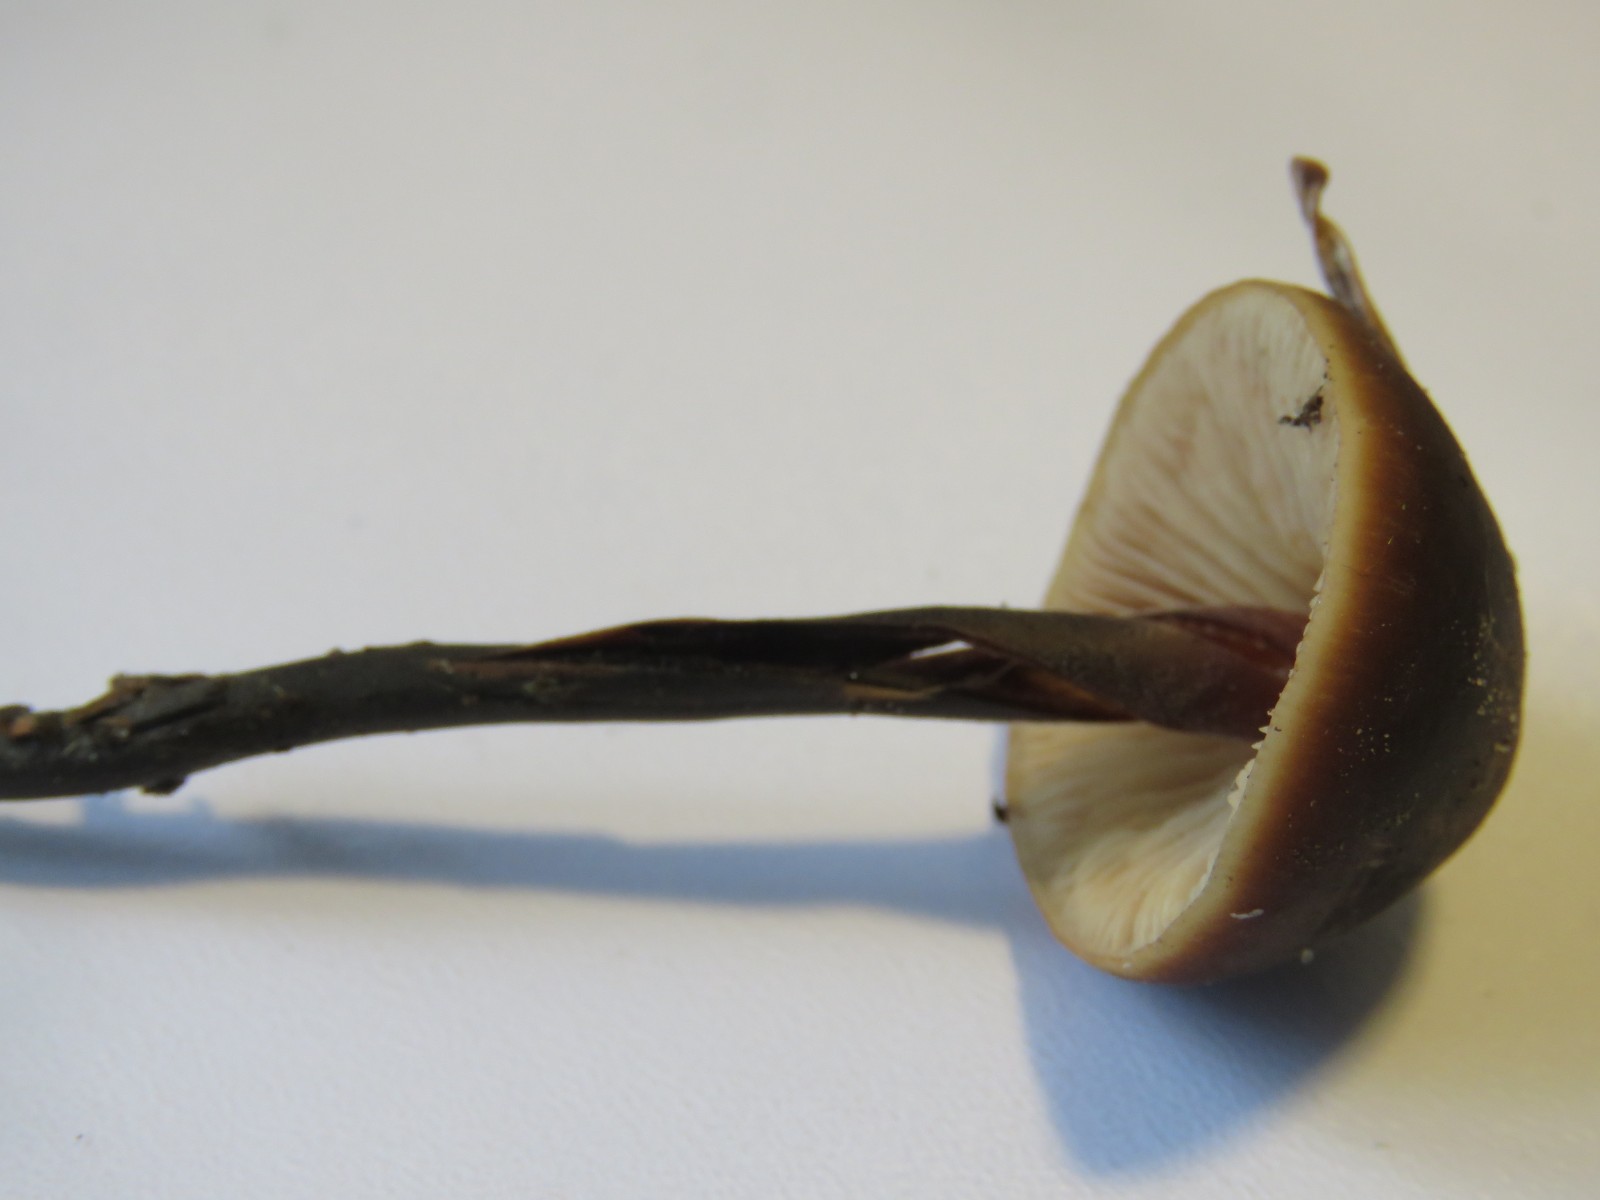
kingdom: Fungi
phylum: Basidiomycota
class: Agaricomycetes
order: Agaricales
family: Macrocystidiaceae
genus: Macrocystidia
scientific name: Macrocystidia cucumis
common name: agurkehat
